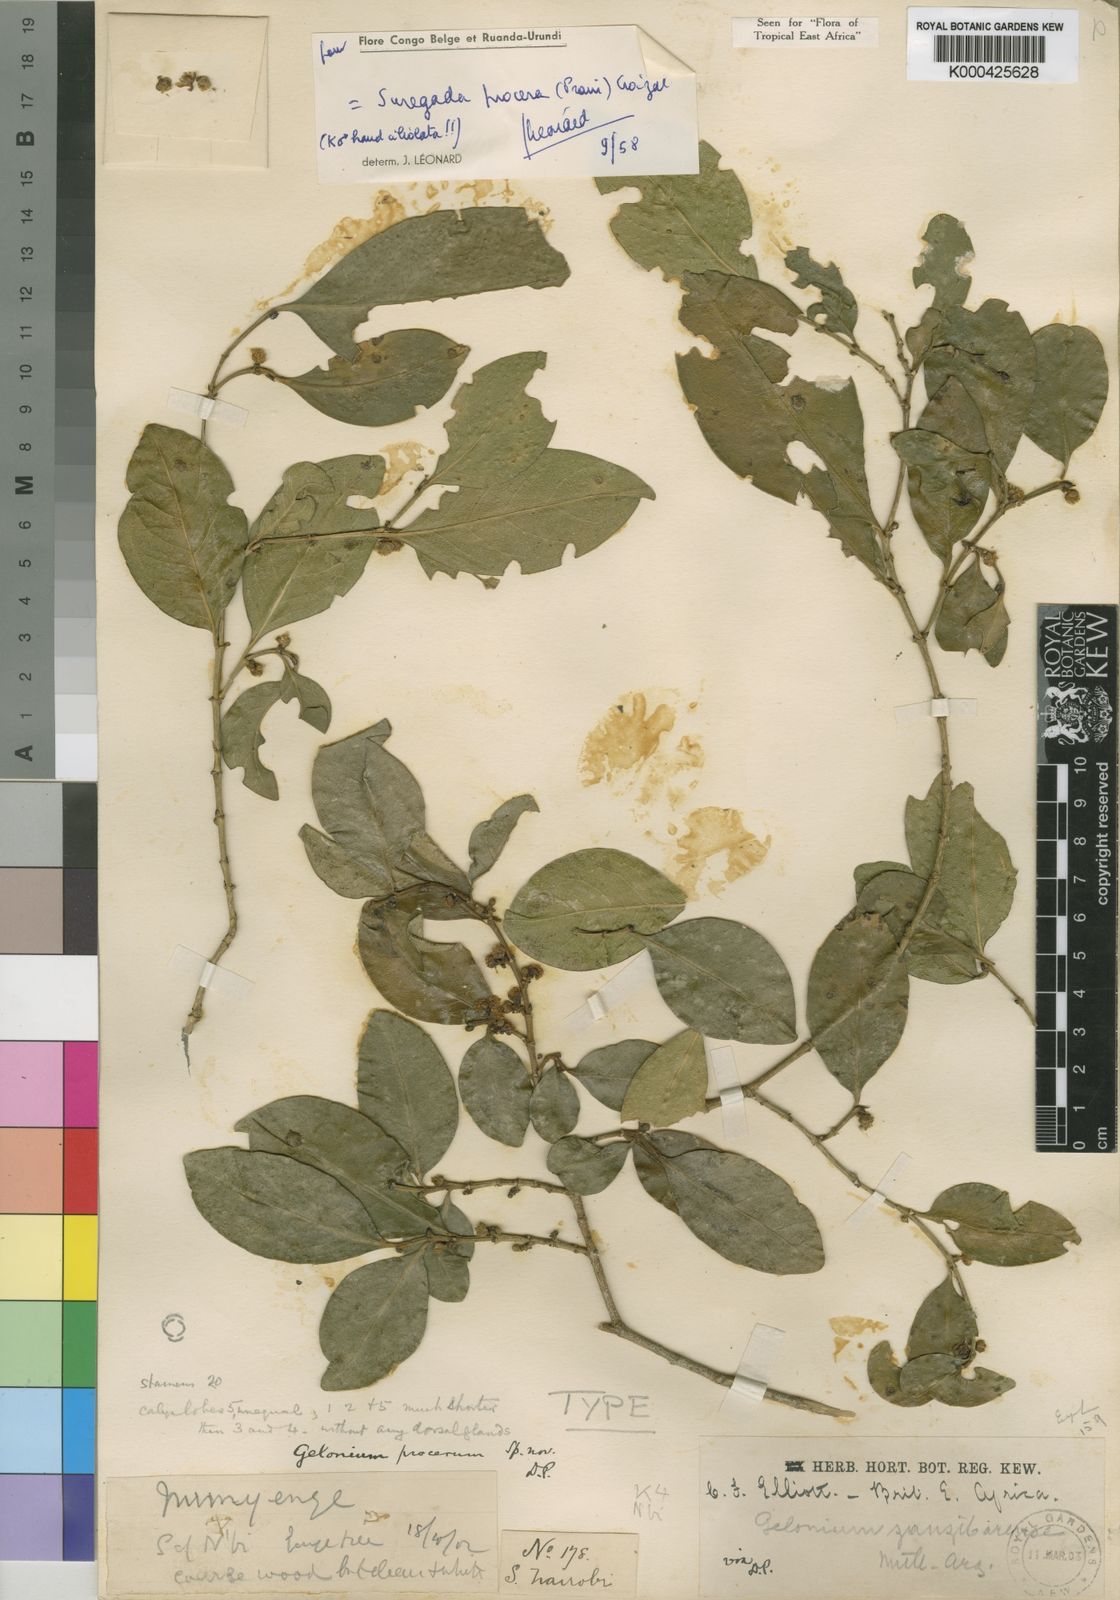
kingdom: Plantae
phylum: Tracheophyta
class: Magnoliopsida
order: Malpighiales
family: Euphorbiaceae
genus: Suregada
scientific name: Suregada procera
